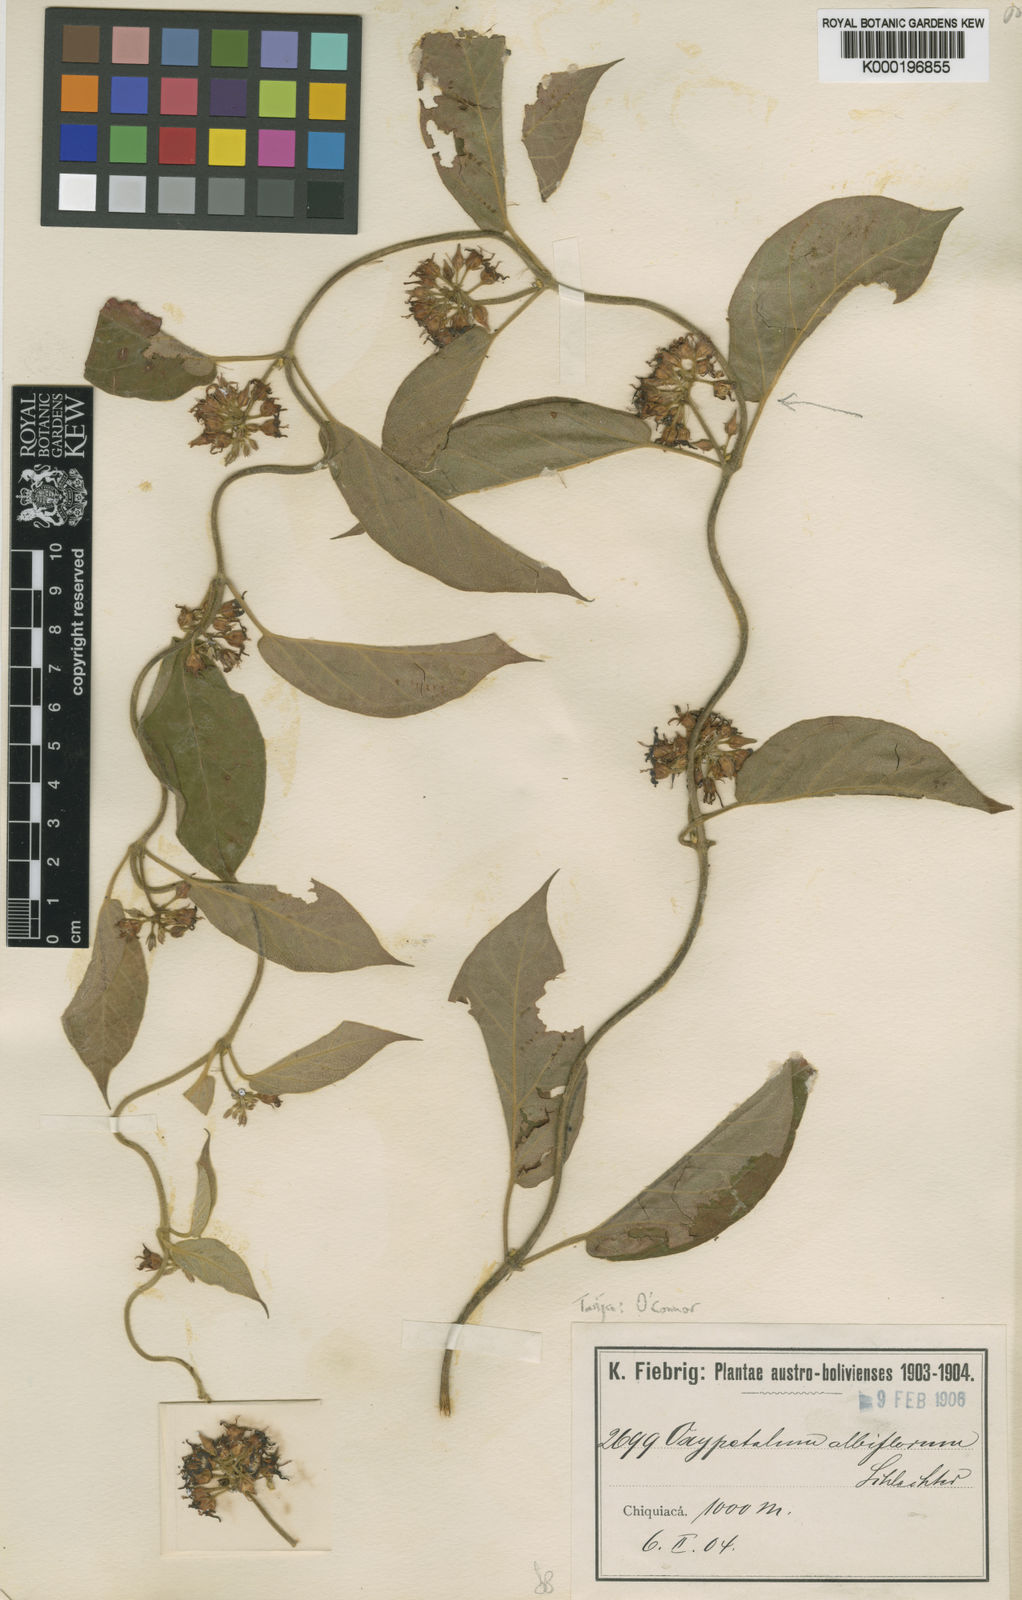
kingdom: Plantae
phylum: Tracheophyta
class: Magnoliopsida
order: Gentianales
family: Apocynaceae
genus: Oxypetalum
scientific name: Oxypetalum brachystemma
